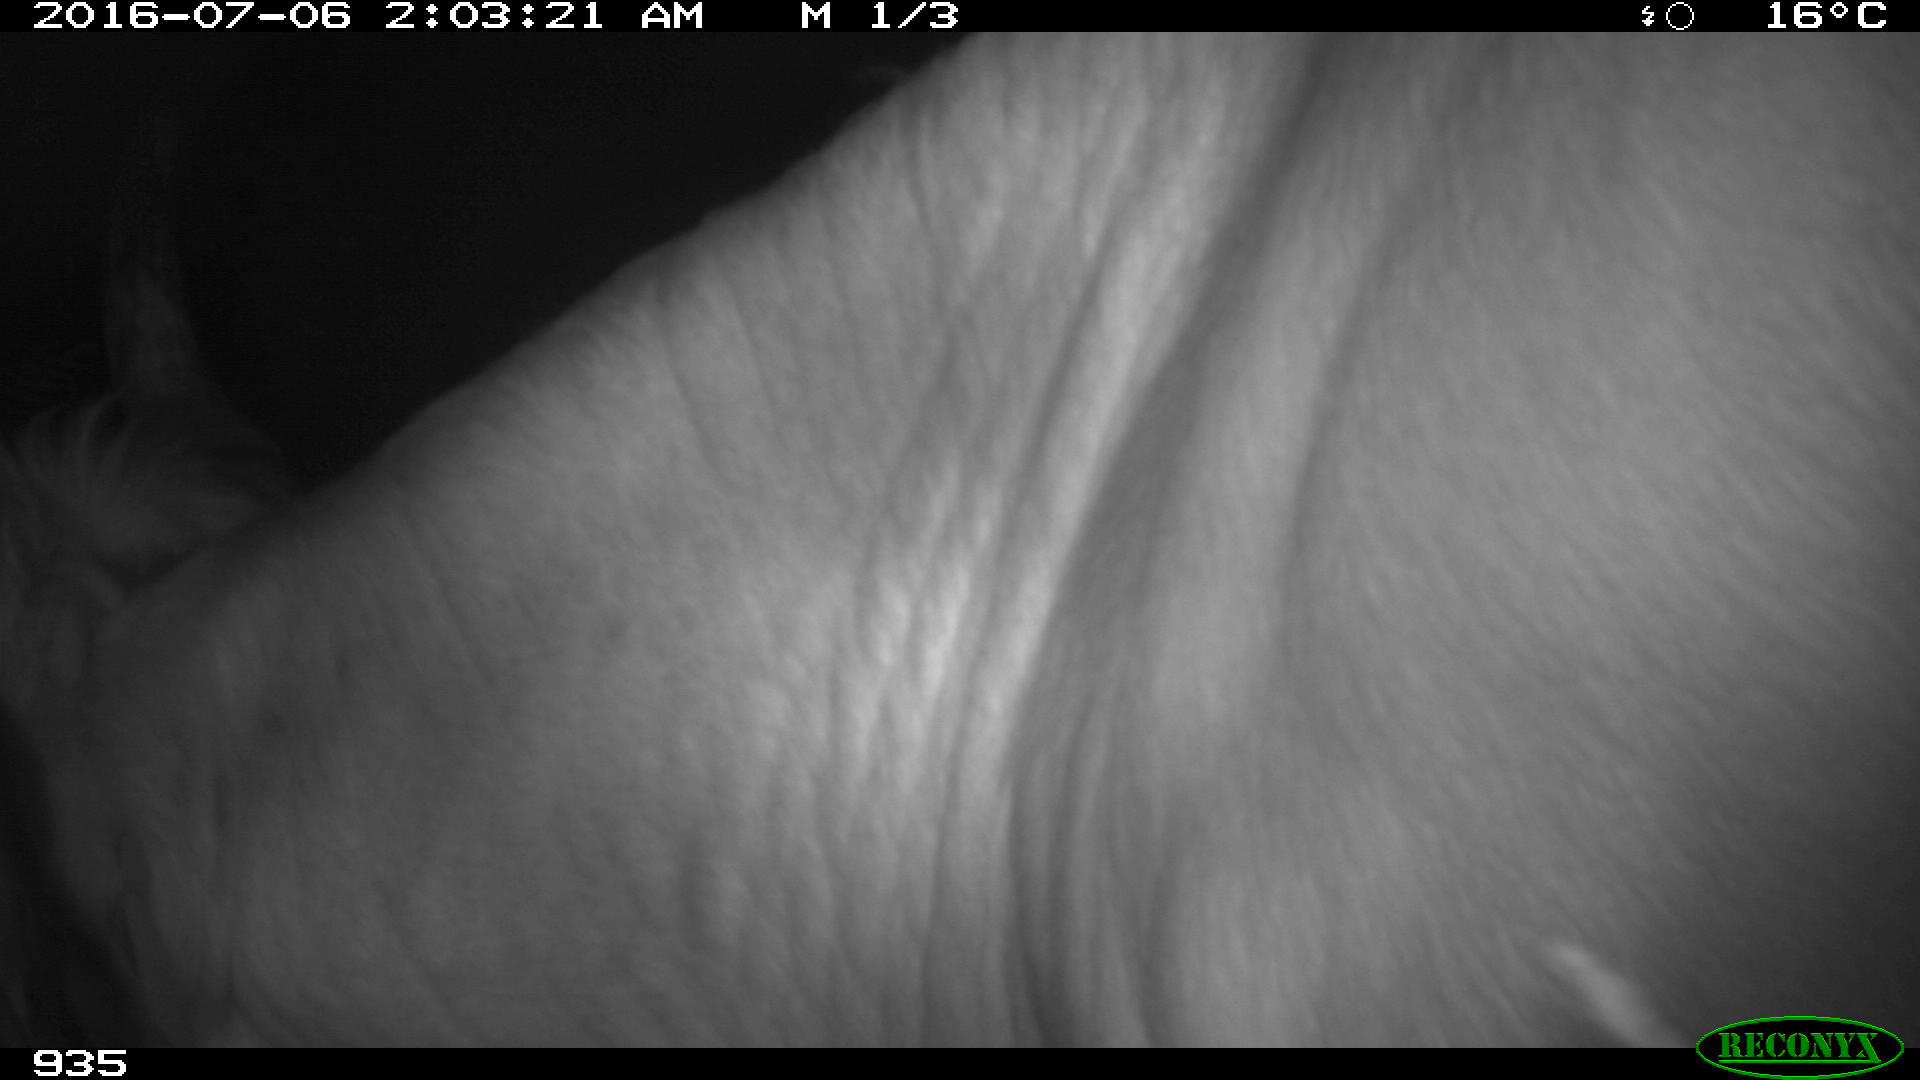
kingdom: Animalia
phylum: Chordata
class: Mammalia
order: Artiodactyla
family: Bovidae
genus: Bos
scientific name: Bos taurus
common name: Domesticated cattle
